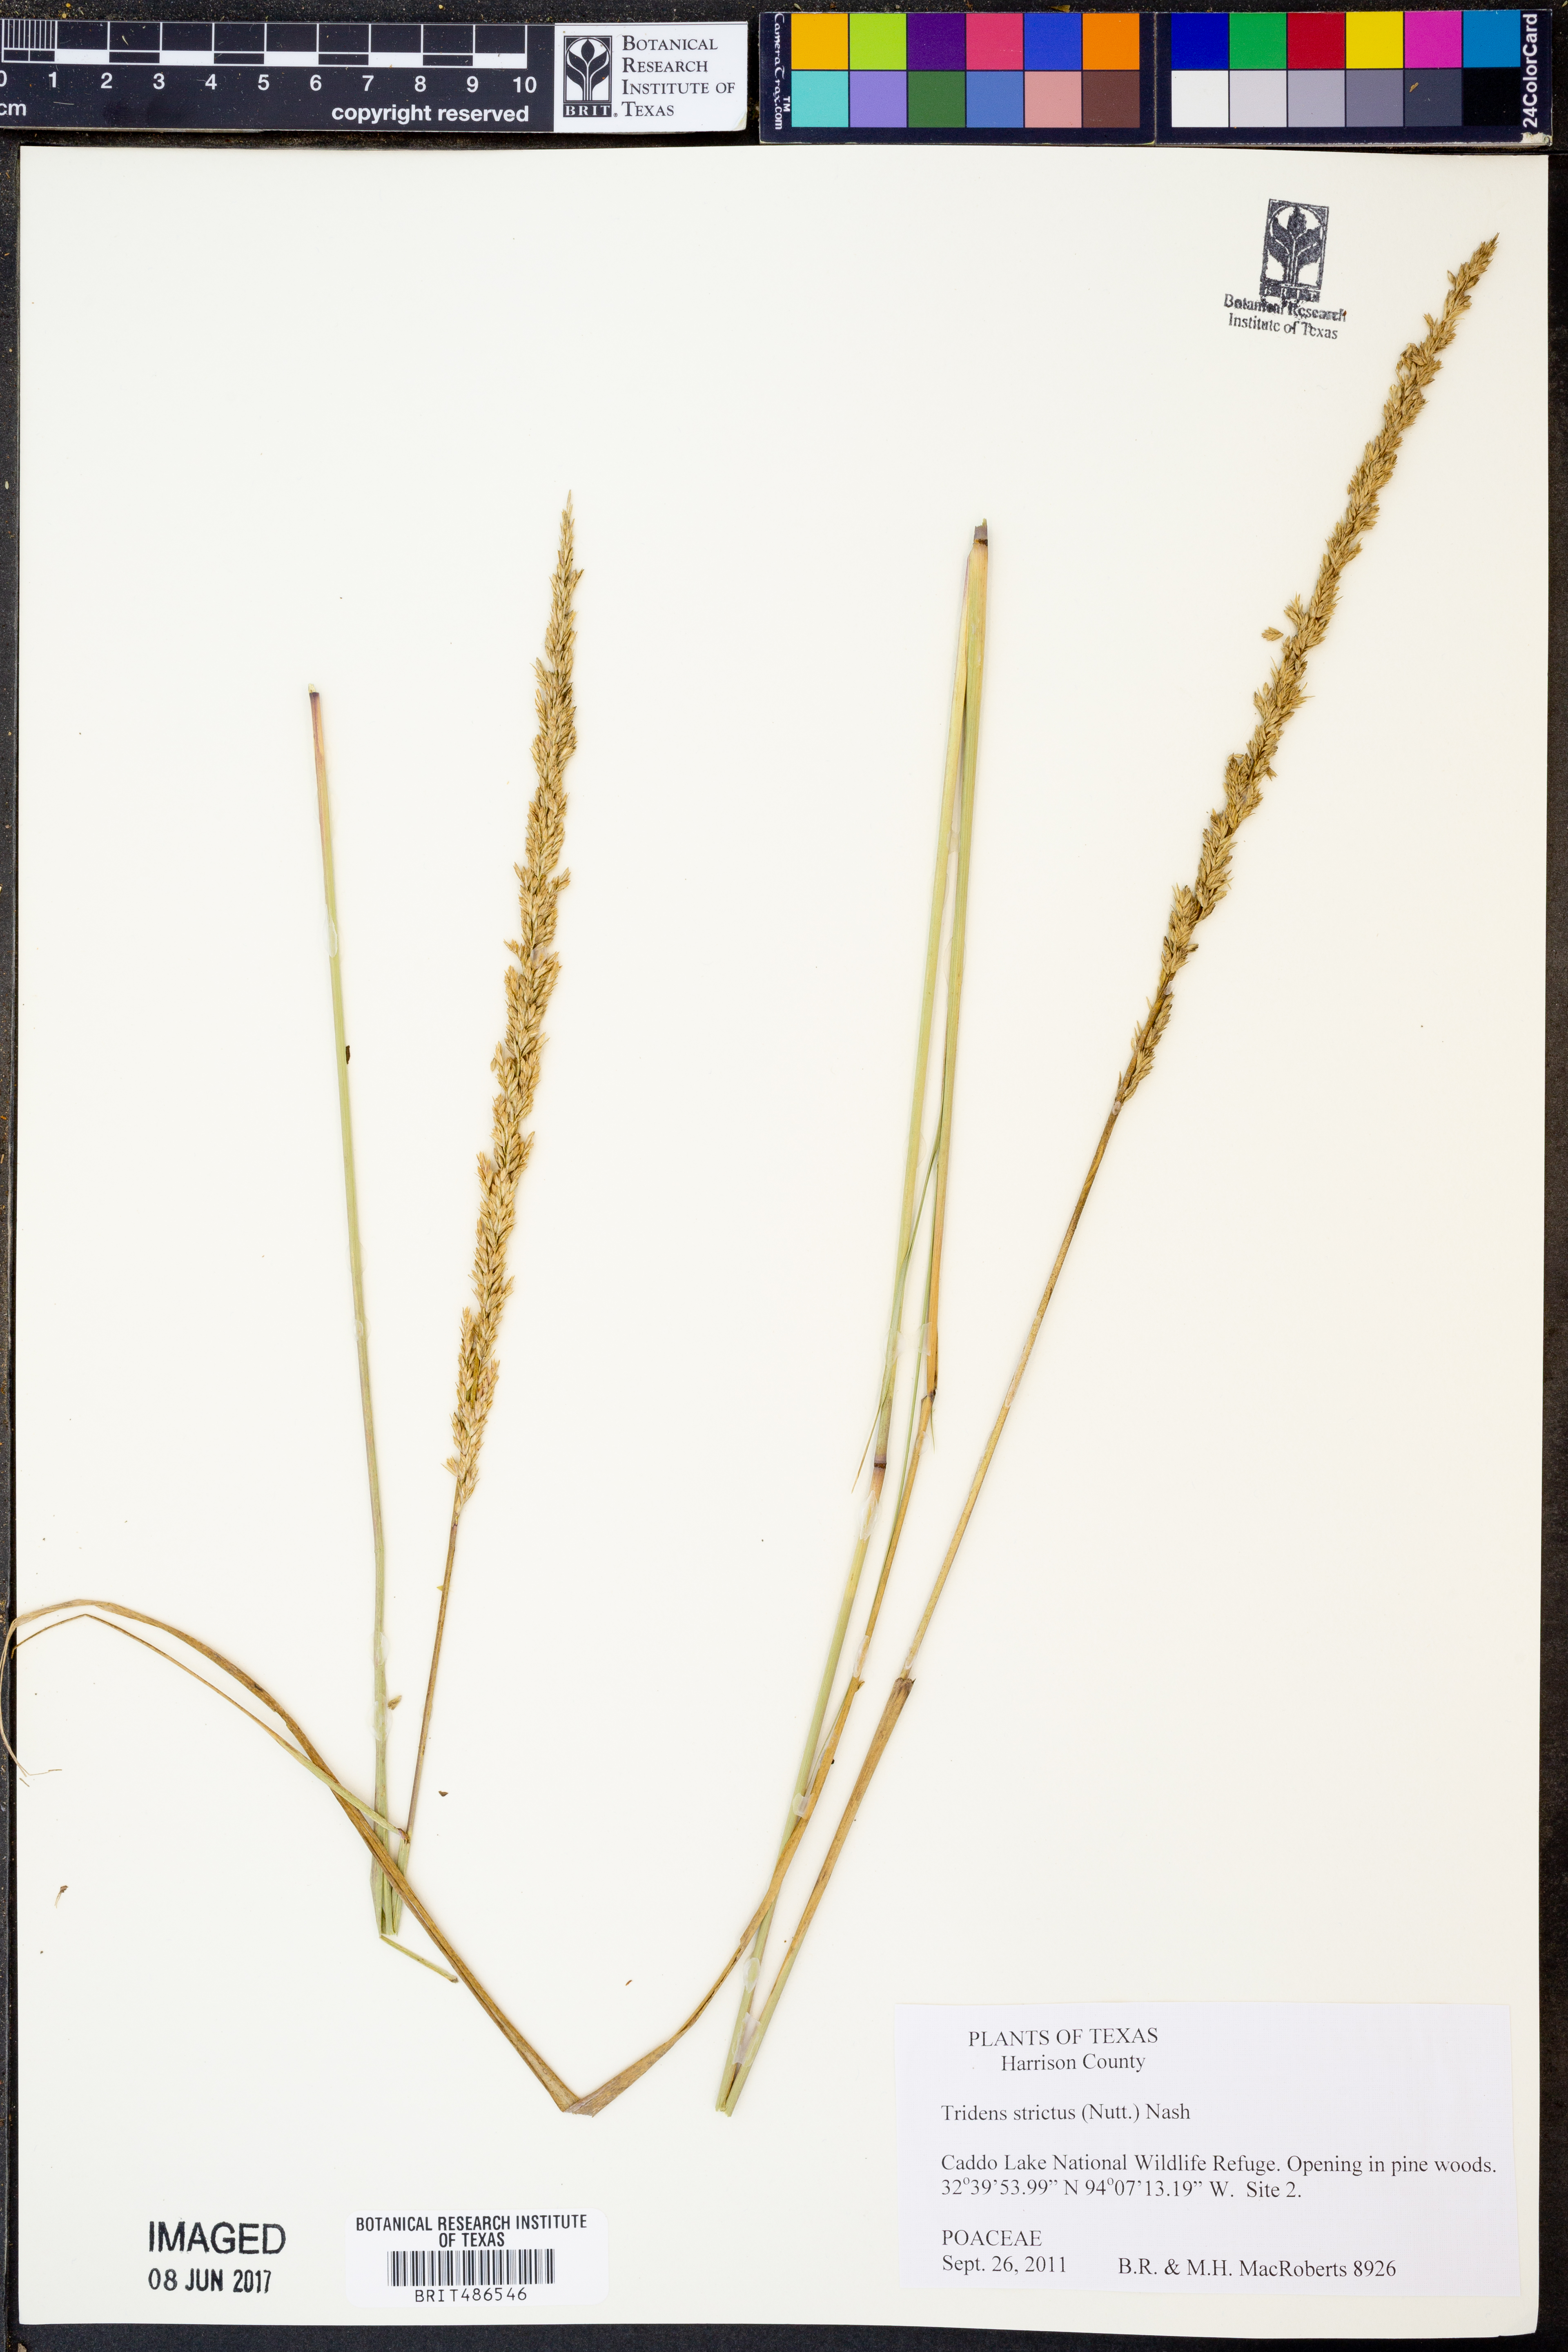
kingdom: Plantae
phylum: Tracheophyta
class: Liliopsida
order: Poales
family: Poaceae
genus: Tridens
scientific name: Tridens strictus
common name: Long-spike tridens
